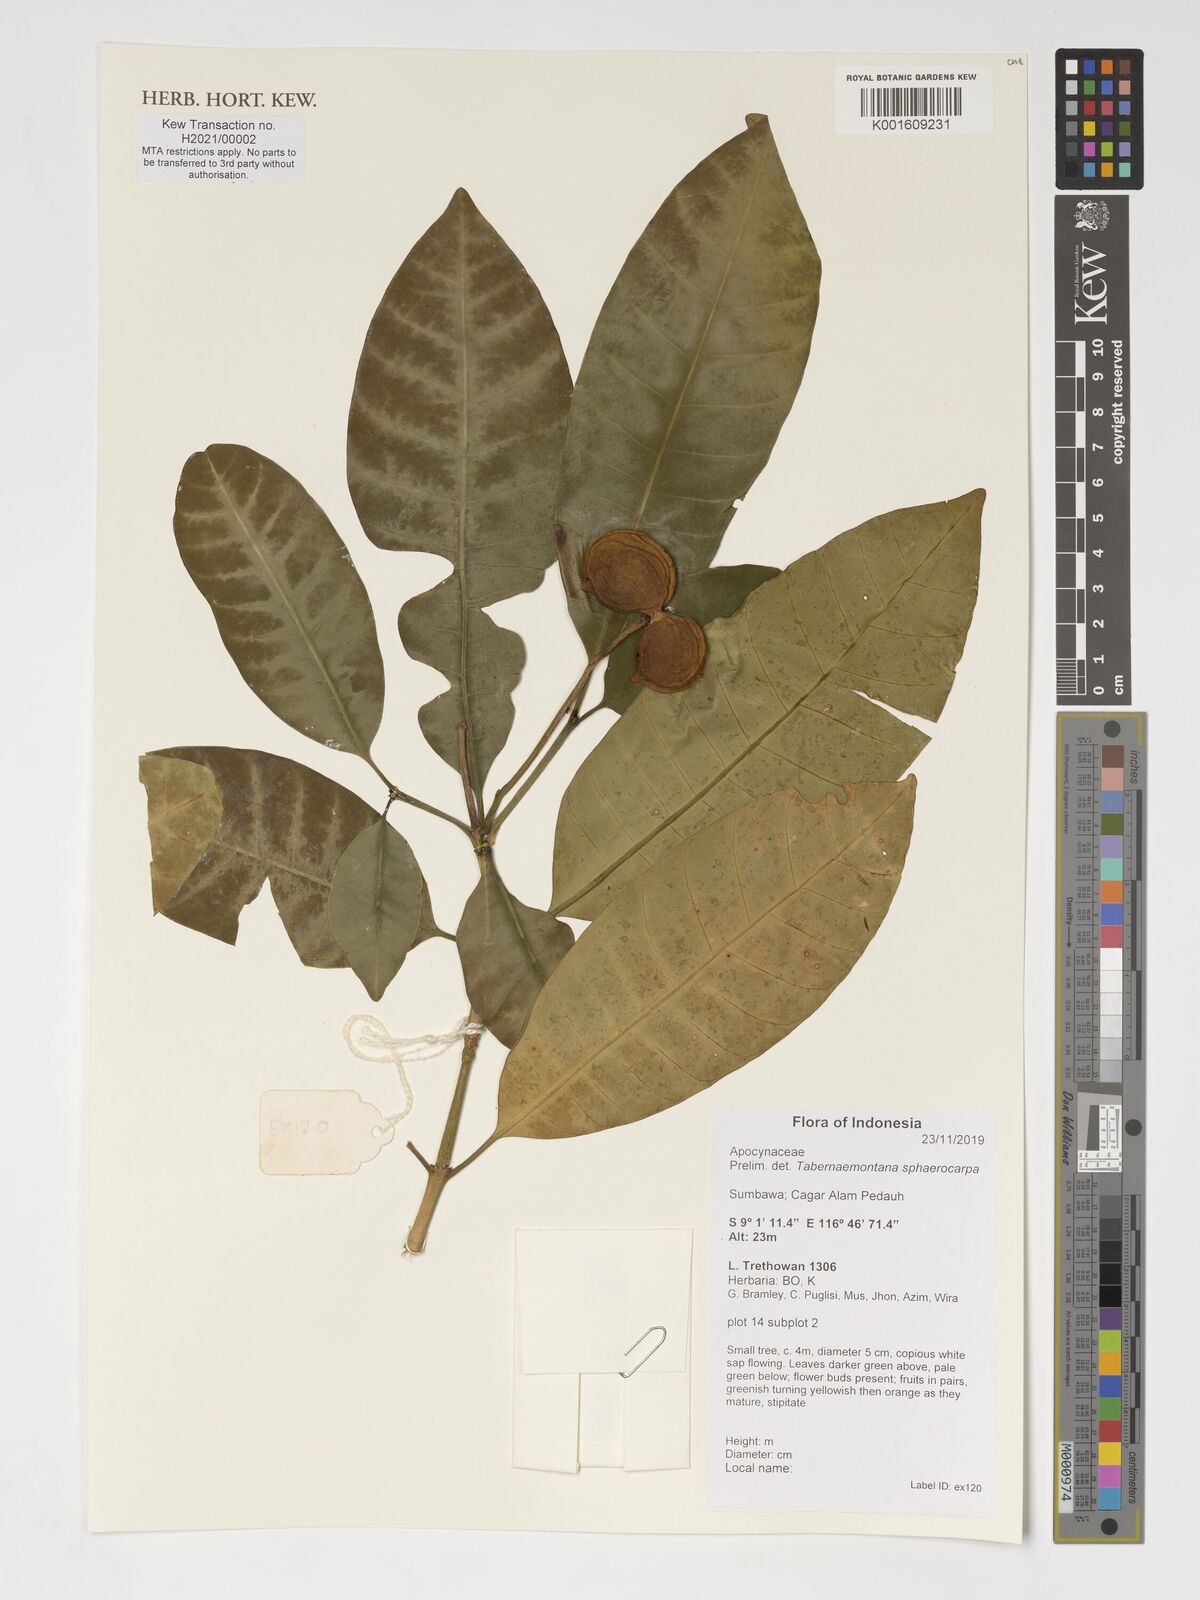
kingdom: Plantae
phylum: Tracheophyta
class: Magnoliopsida
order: Gentianales
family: Apocynaceae
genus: Tabernaemontana
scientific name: Tabernaemontana sphaerocarpa
